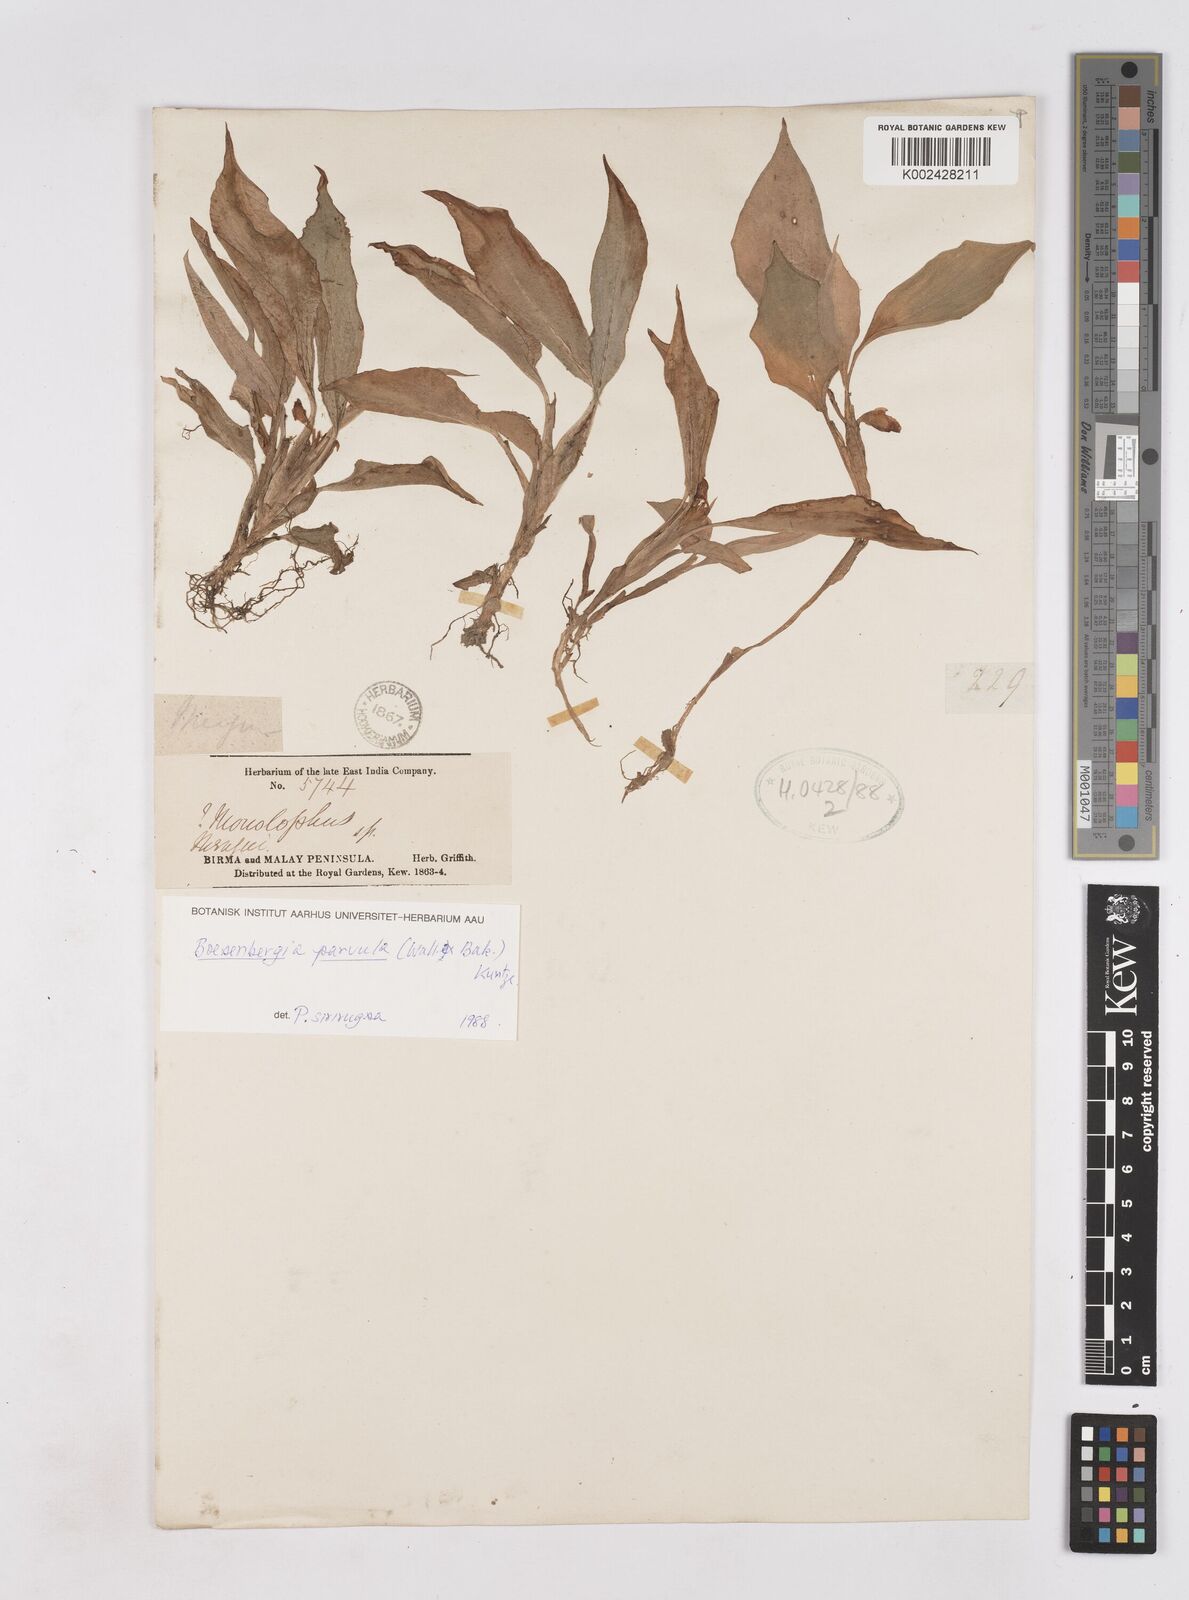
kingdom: Plantae
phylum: Tracheophyta
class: Liliopsida
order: Zingiberales
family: Zingiberaceae
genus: Boesenbergia
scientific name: Boesenbergia parvula
